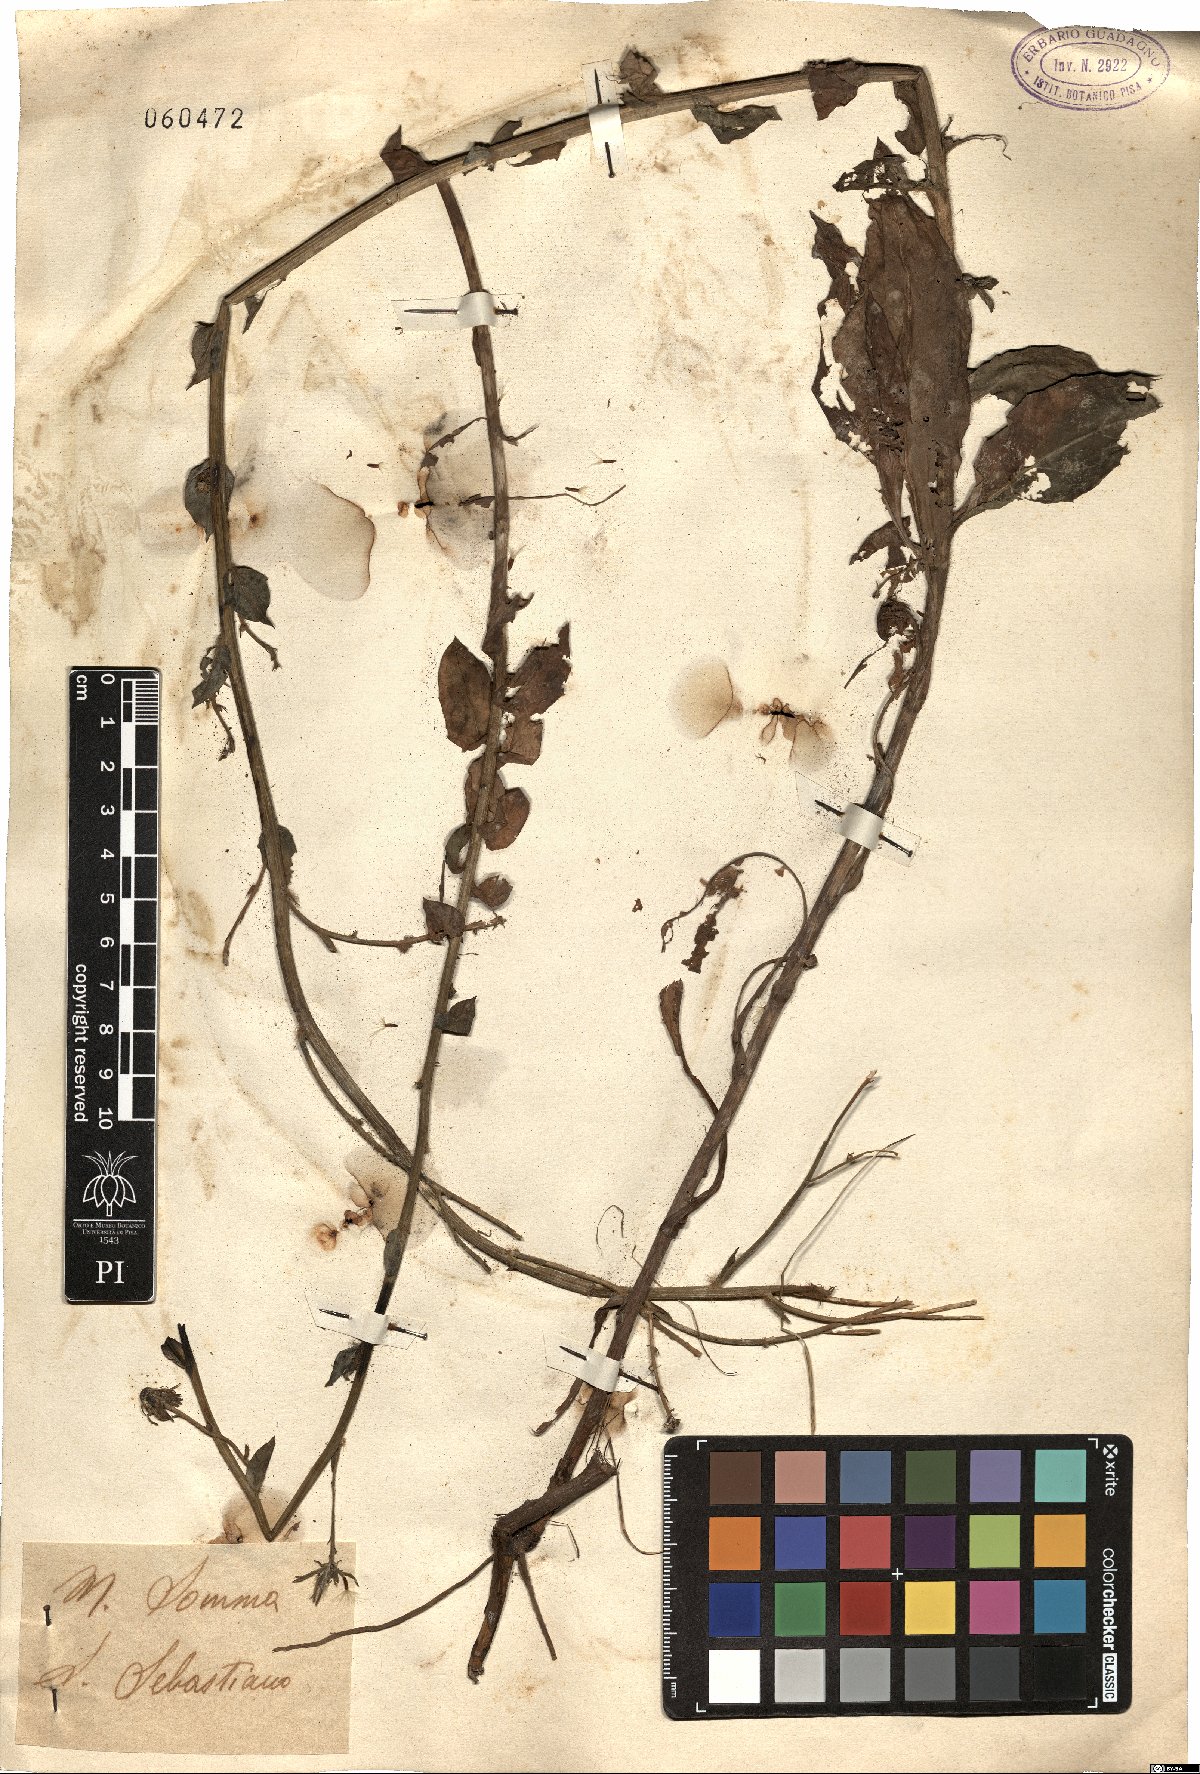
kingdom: Plantae
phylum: Tracheophyta
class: Magnoliopsida
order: Asterales
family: Asteraceae
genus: Hieracium
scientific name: Hieracium
